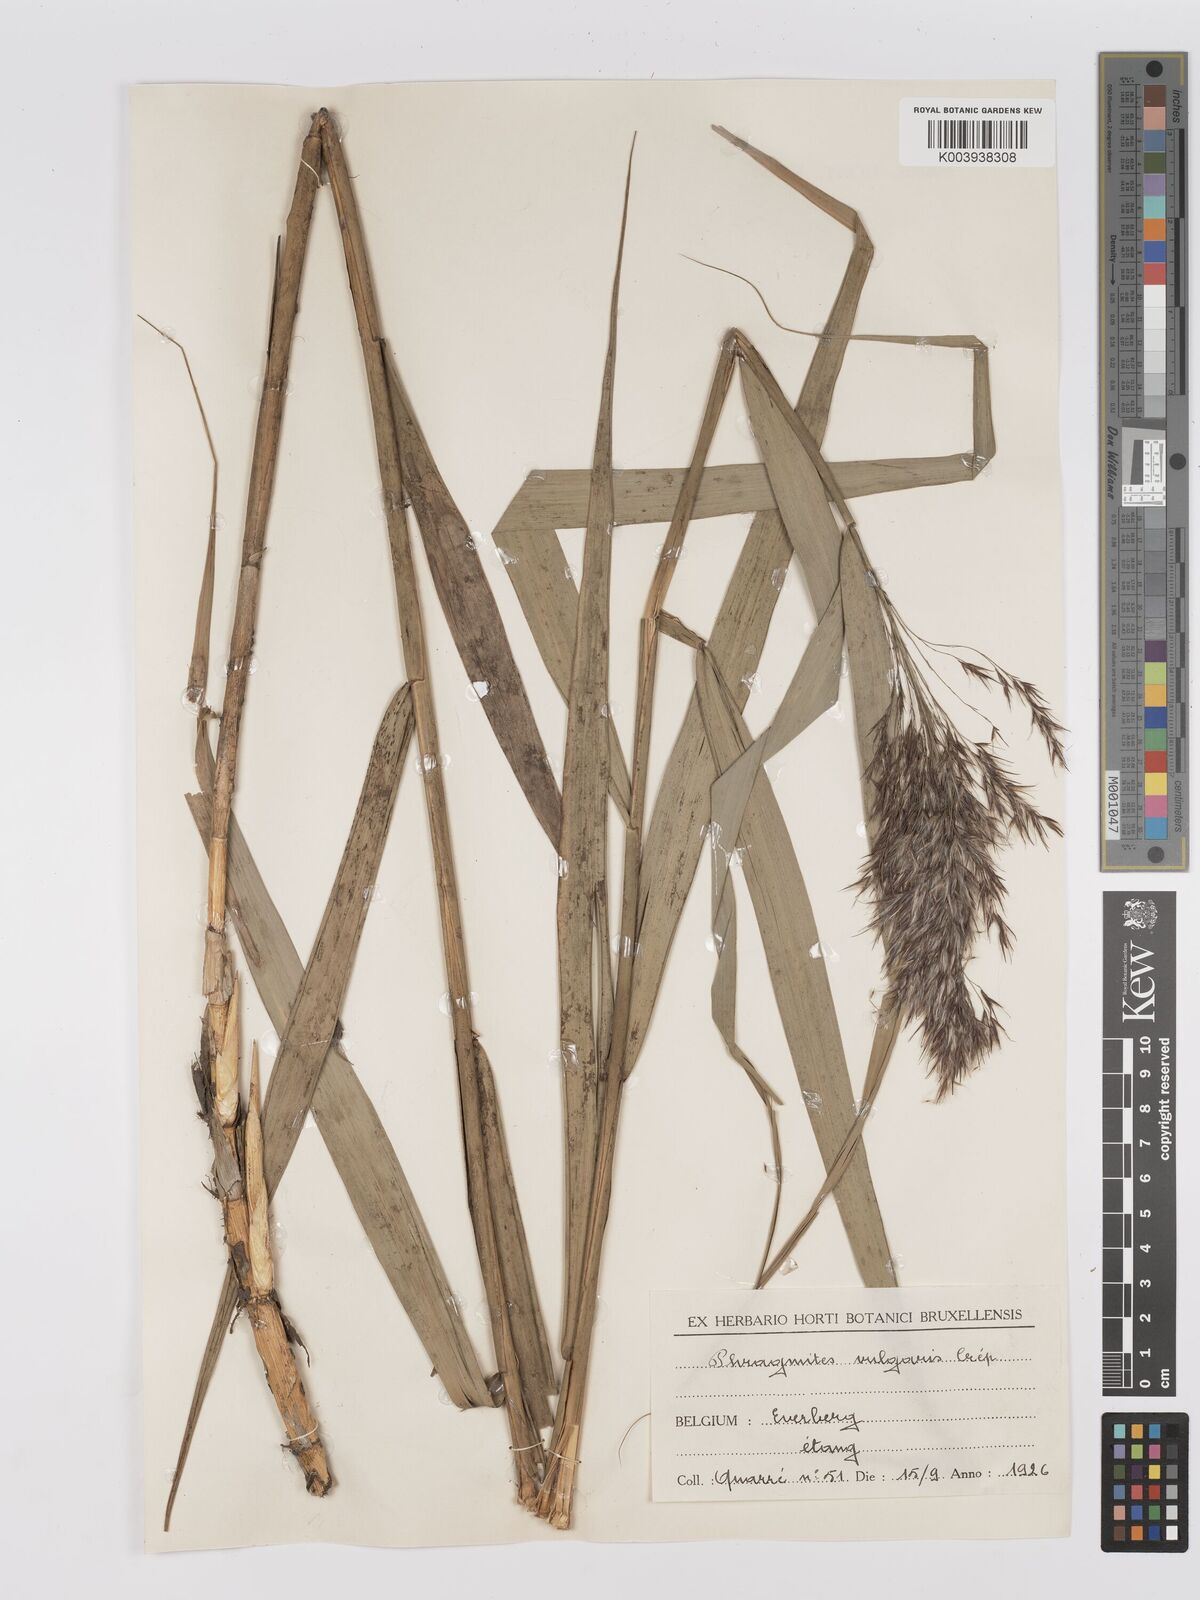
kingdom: Plantae
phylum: Tracheophyta
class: Liliopsida
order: Poales
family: Poaceae
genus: Phragmites
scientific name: Phragmites australis
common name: Common reed
